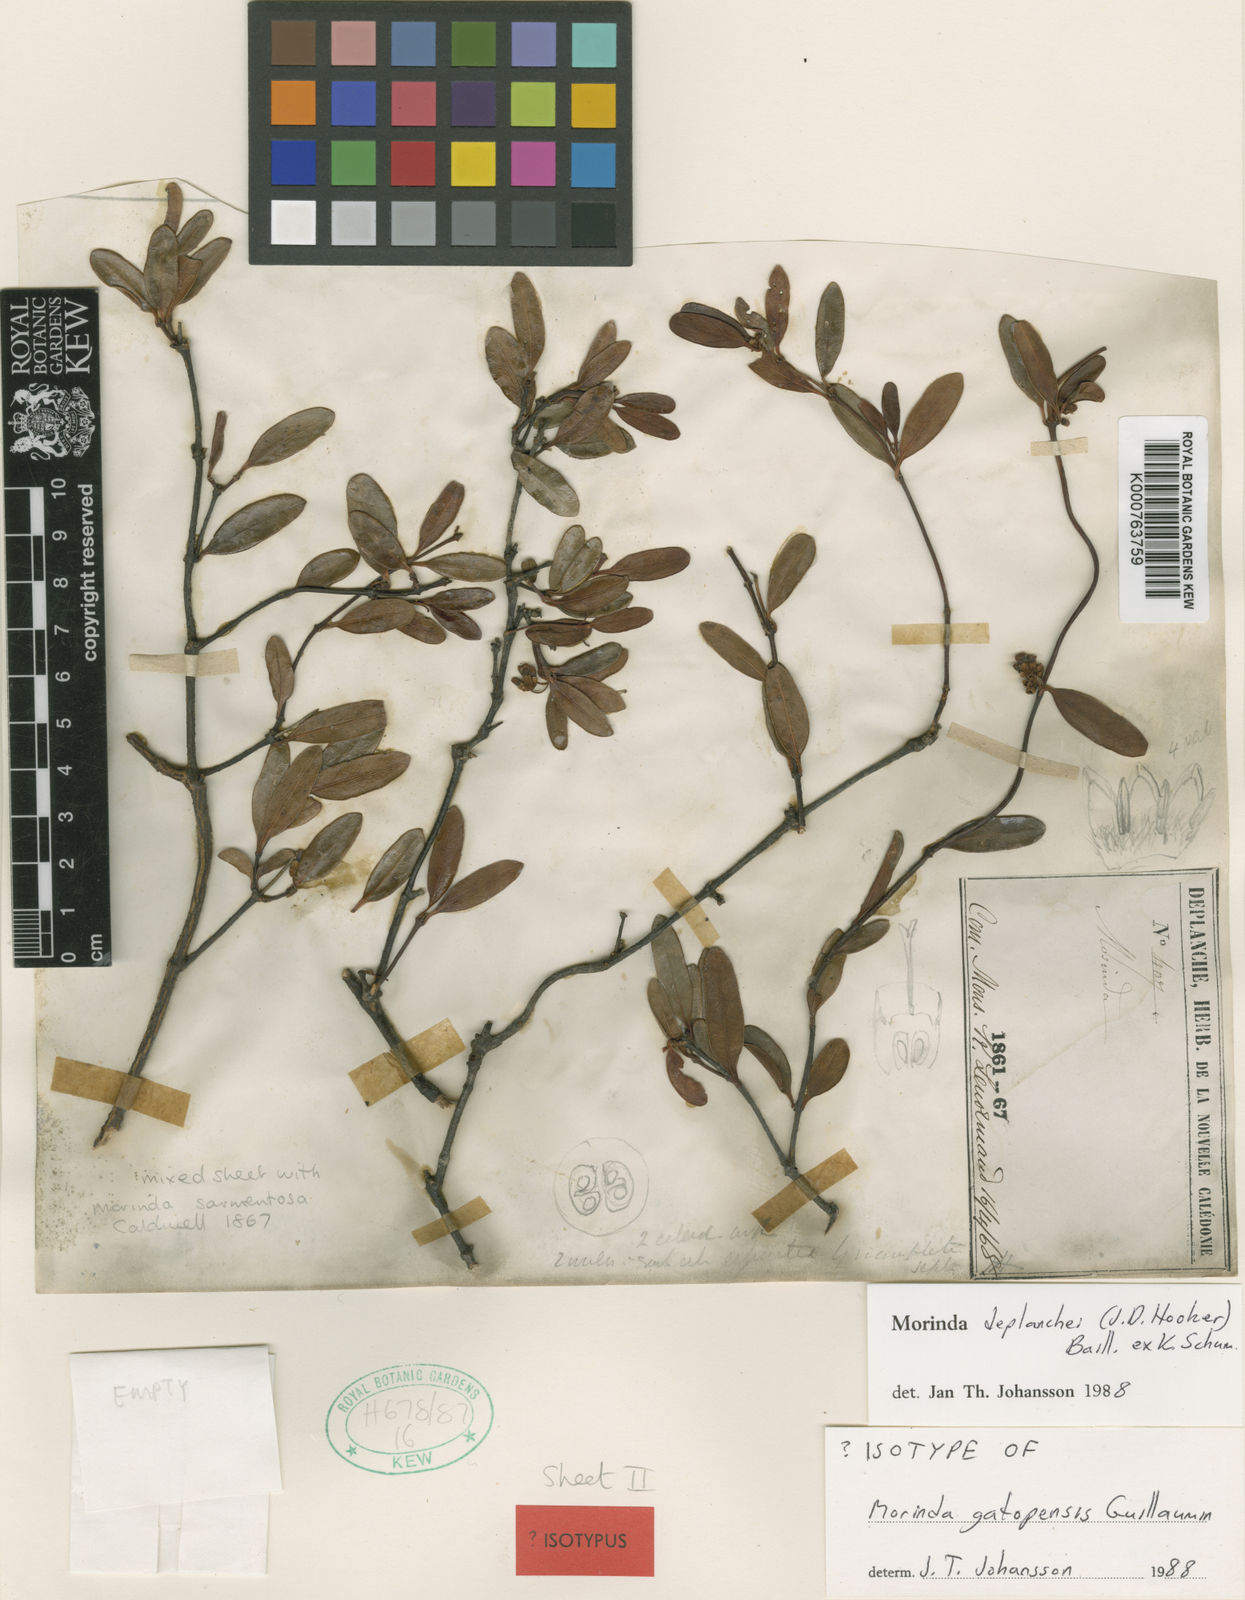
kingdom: Plantae
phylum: Tracheophyta
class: Magnoliopsida
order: Gentianales
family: Rubiaceae
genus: Gynochthodes
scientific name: Gynochthodes deplanchei
